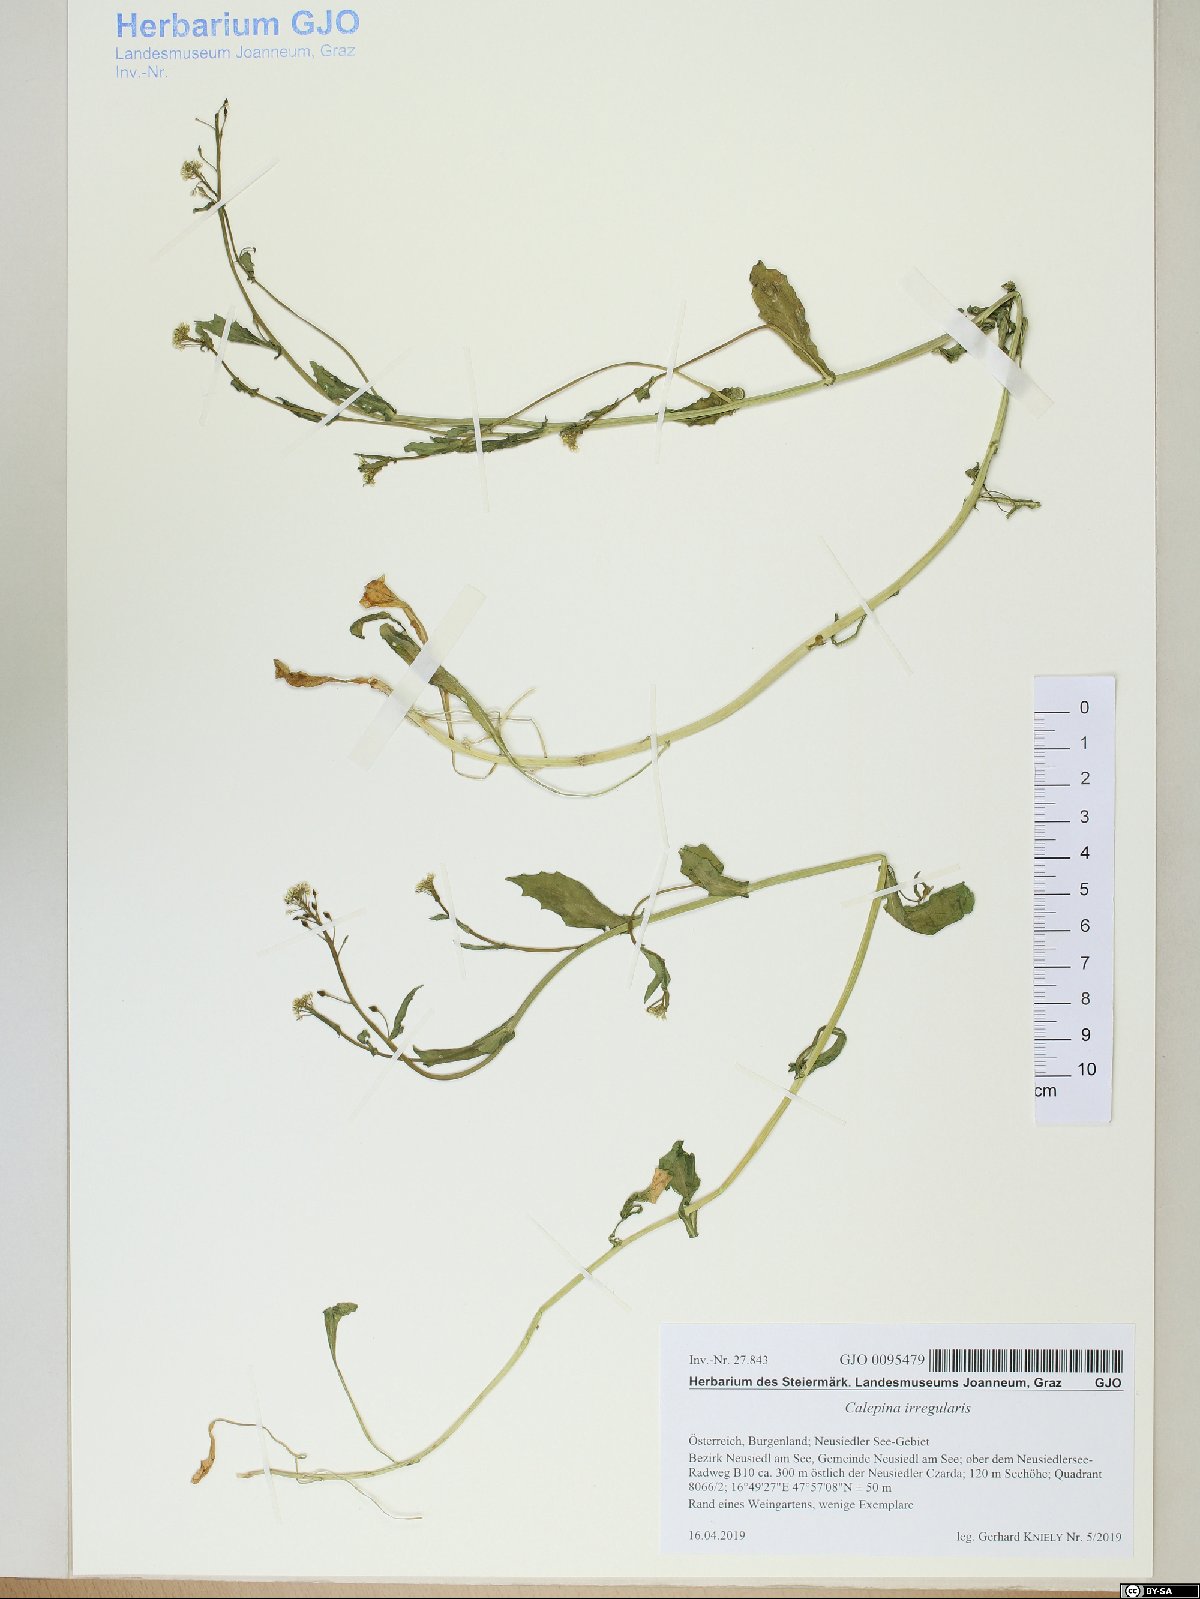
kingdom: Plantae
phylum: Tracheophyta
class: Magnoliopsida
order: Brassicales
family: Brassicaceae
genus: Calepina
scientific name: Calepina irregularis
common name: White ballmustard
